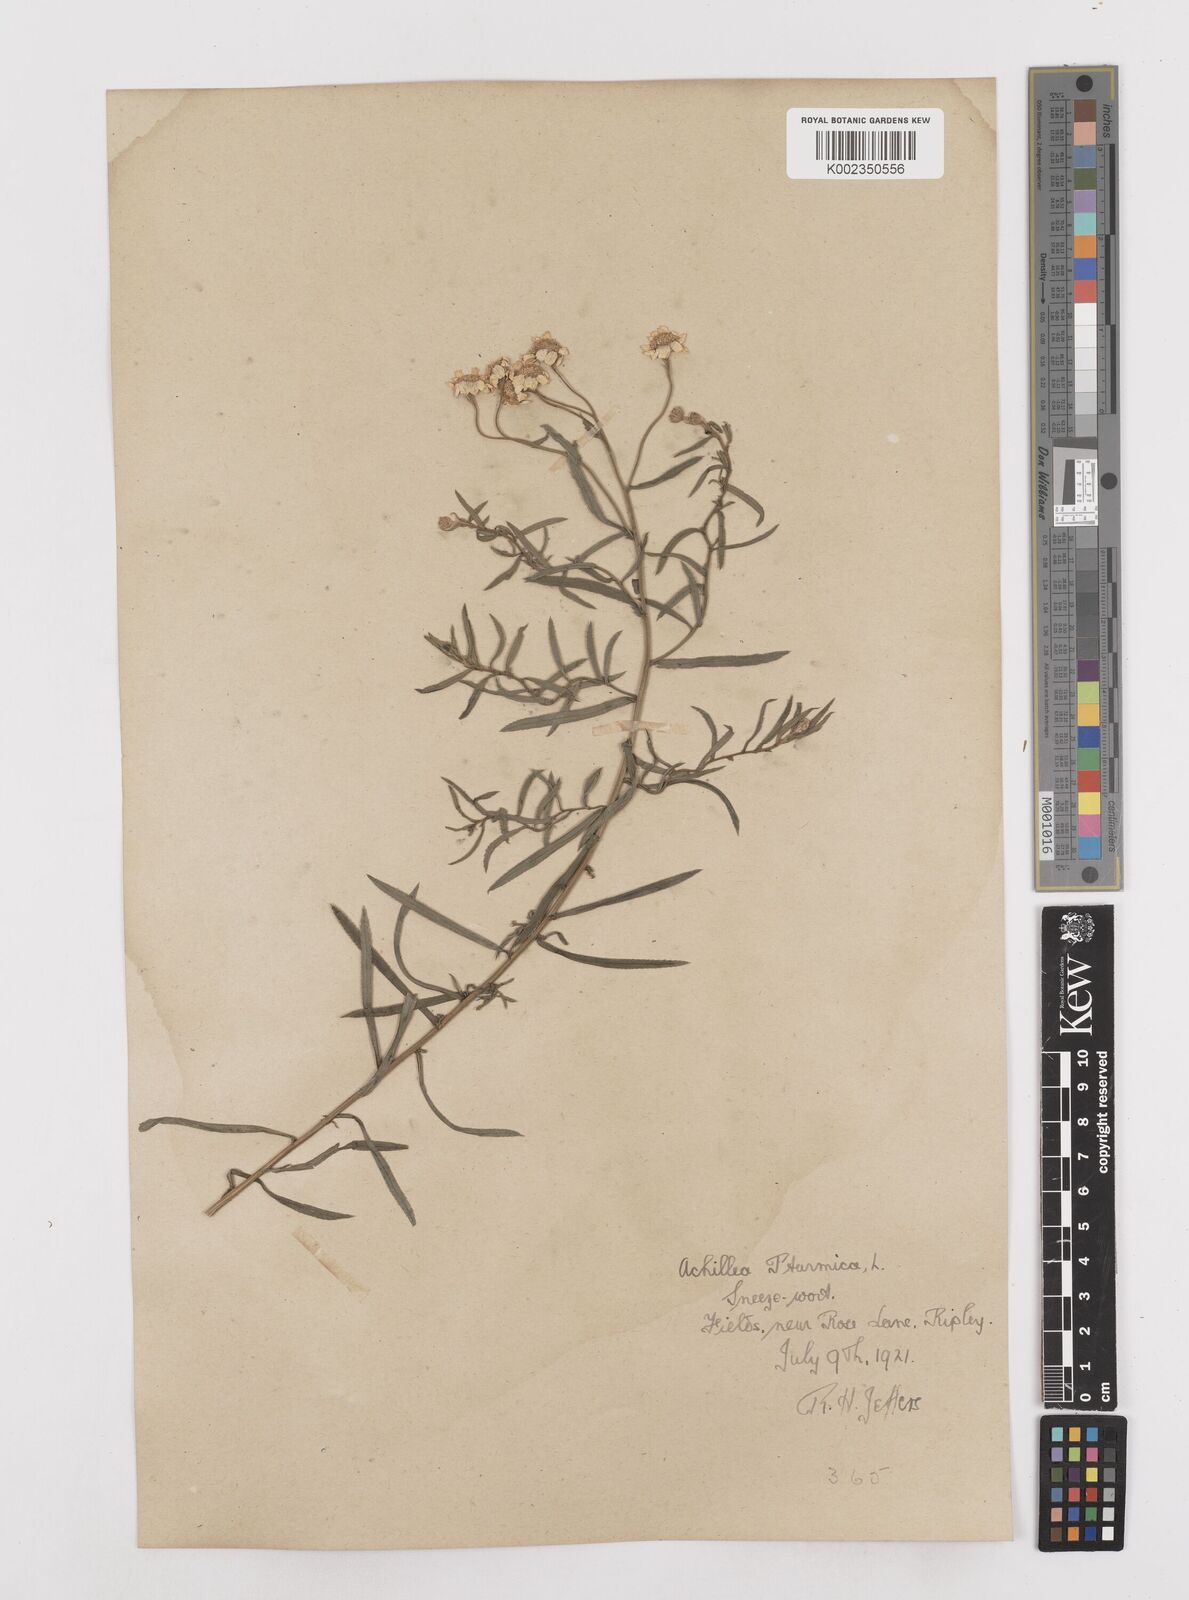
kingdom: Plantae
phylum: Tracheophyta
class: Magnoliopsida
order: Asterales
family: Asteraceae
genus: Achillea
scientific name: Achillea ptarmica
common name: Sneezeweed
